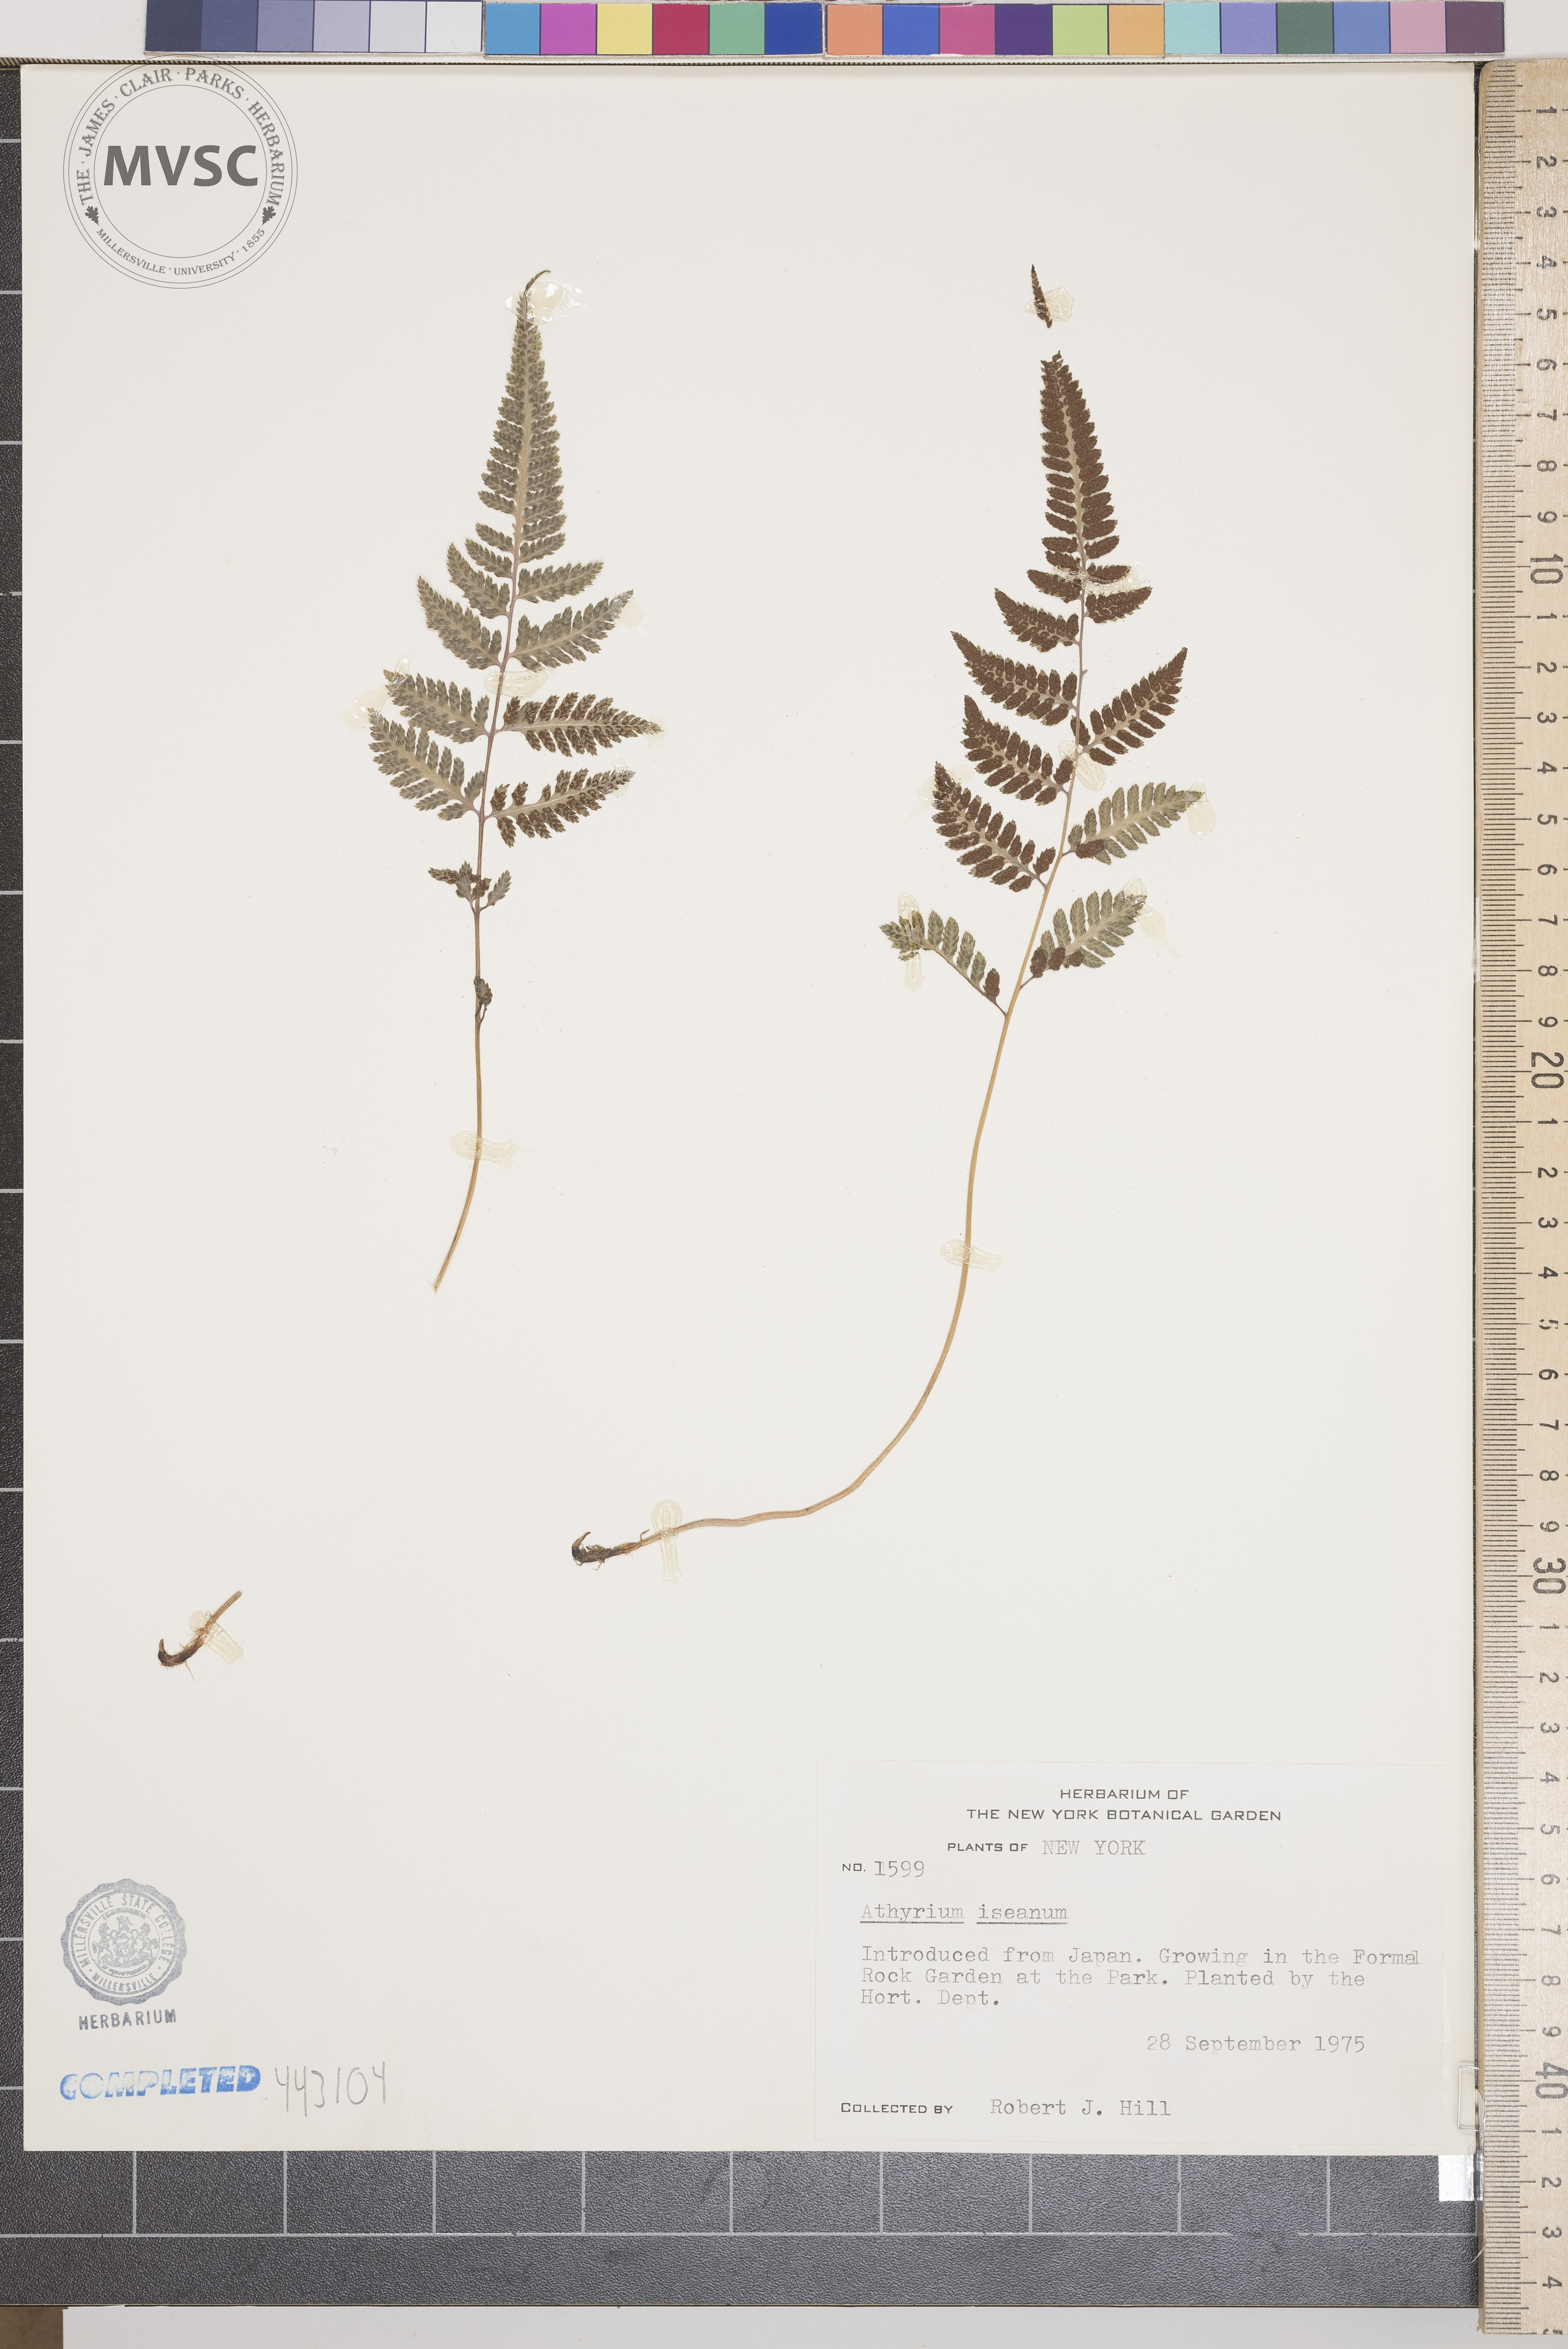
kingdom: Plantae
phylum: Tracheophyta
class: Polypodiopsida
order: Polypodiales
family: Athyriaceae
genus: Athyrium
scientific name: Athyrium iseanum
